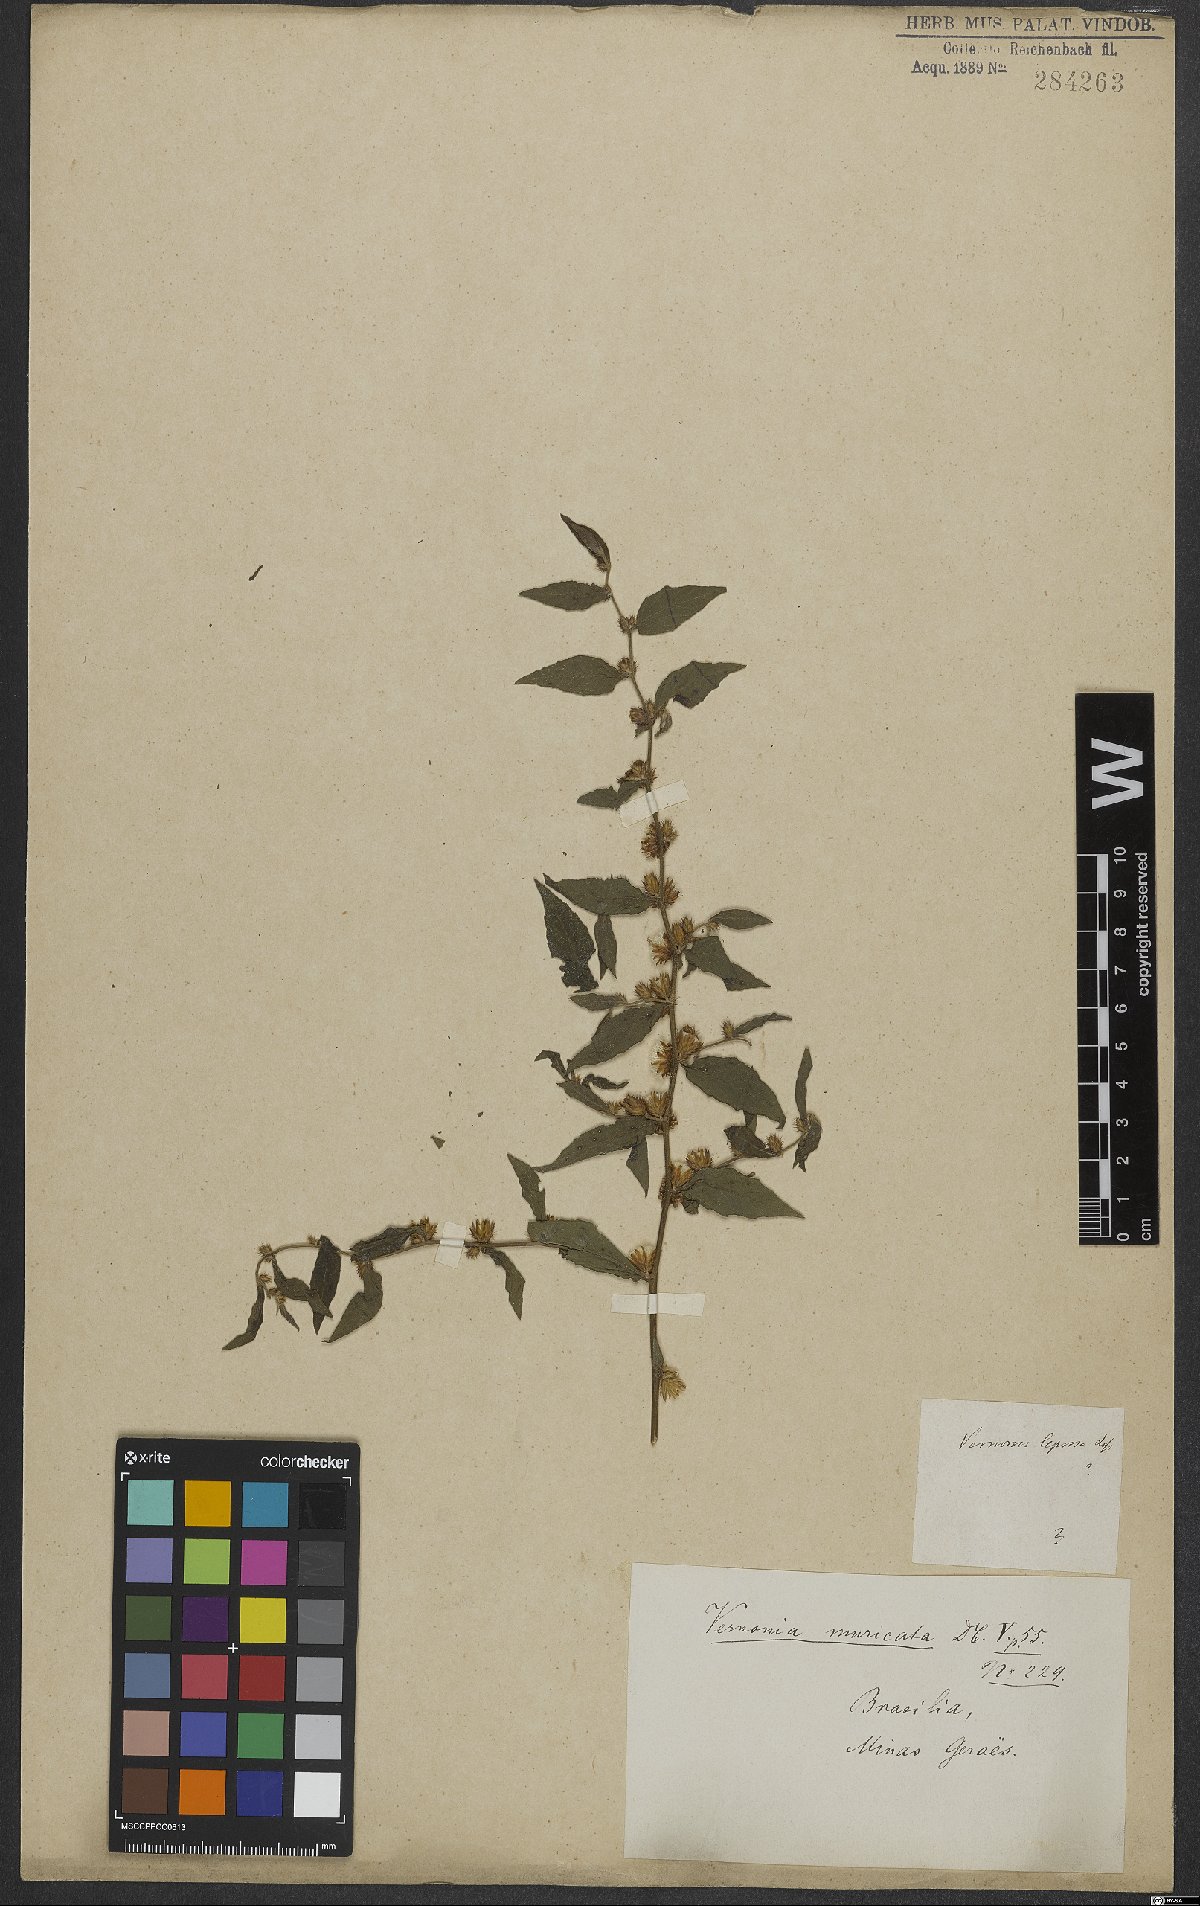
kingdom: Plantae
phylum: Tracheophyta
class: Magnoliopsida
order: Asterales
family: Asteraceae
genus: Lepidaploa
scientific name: Lepidaploa muricata
